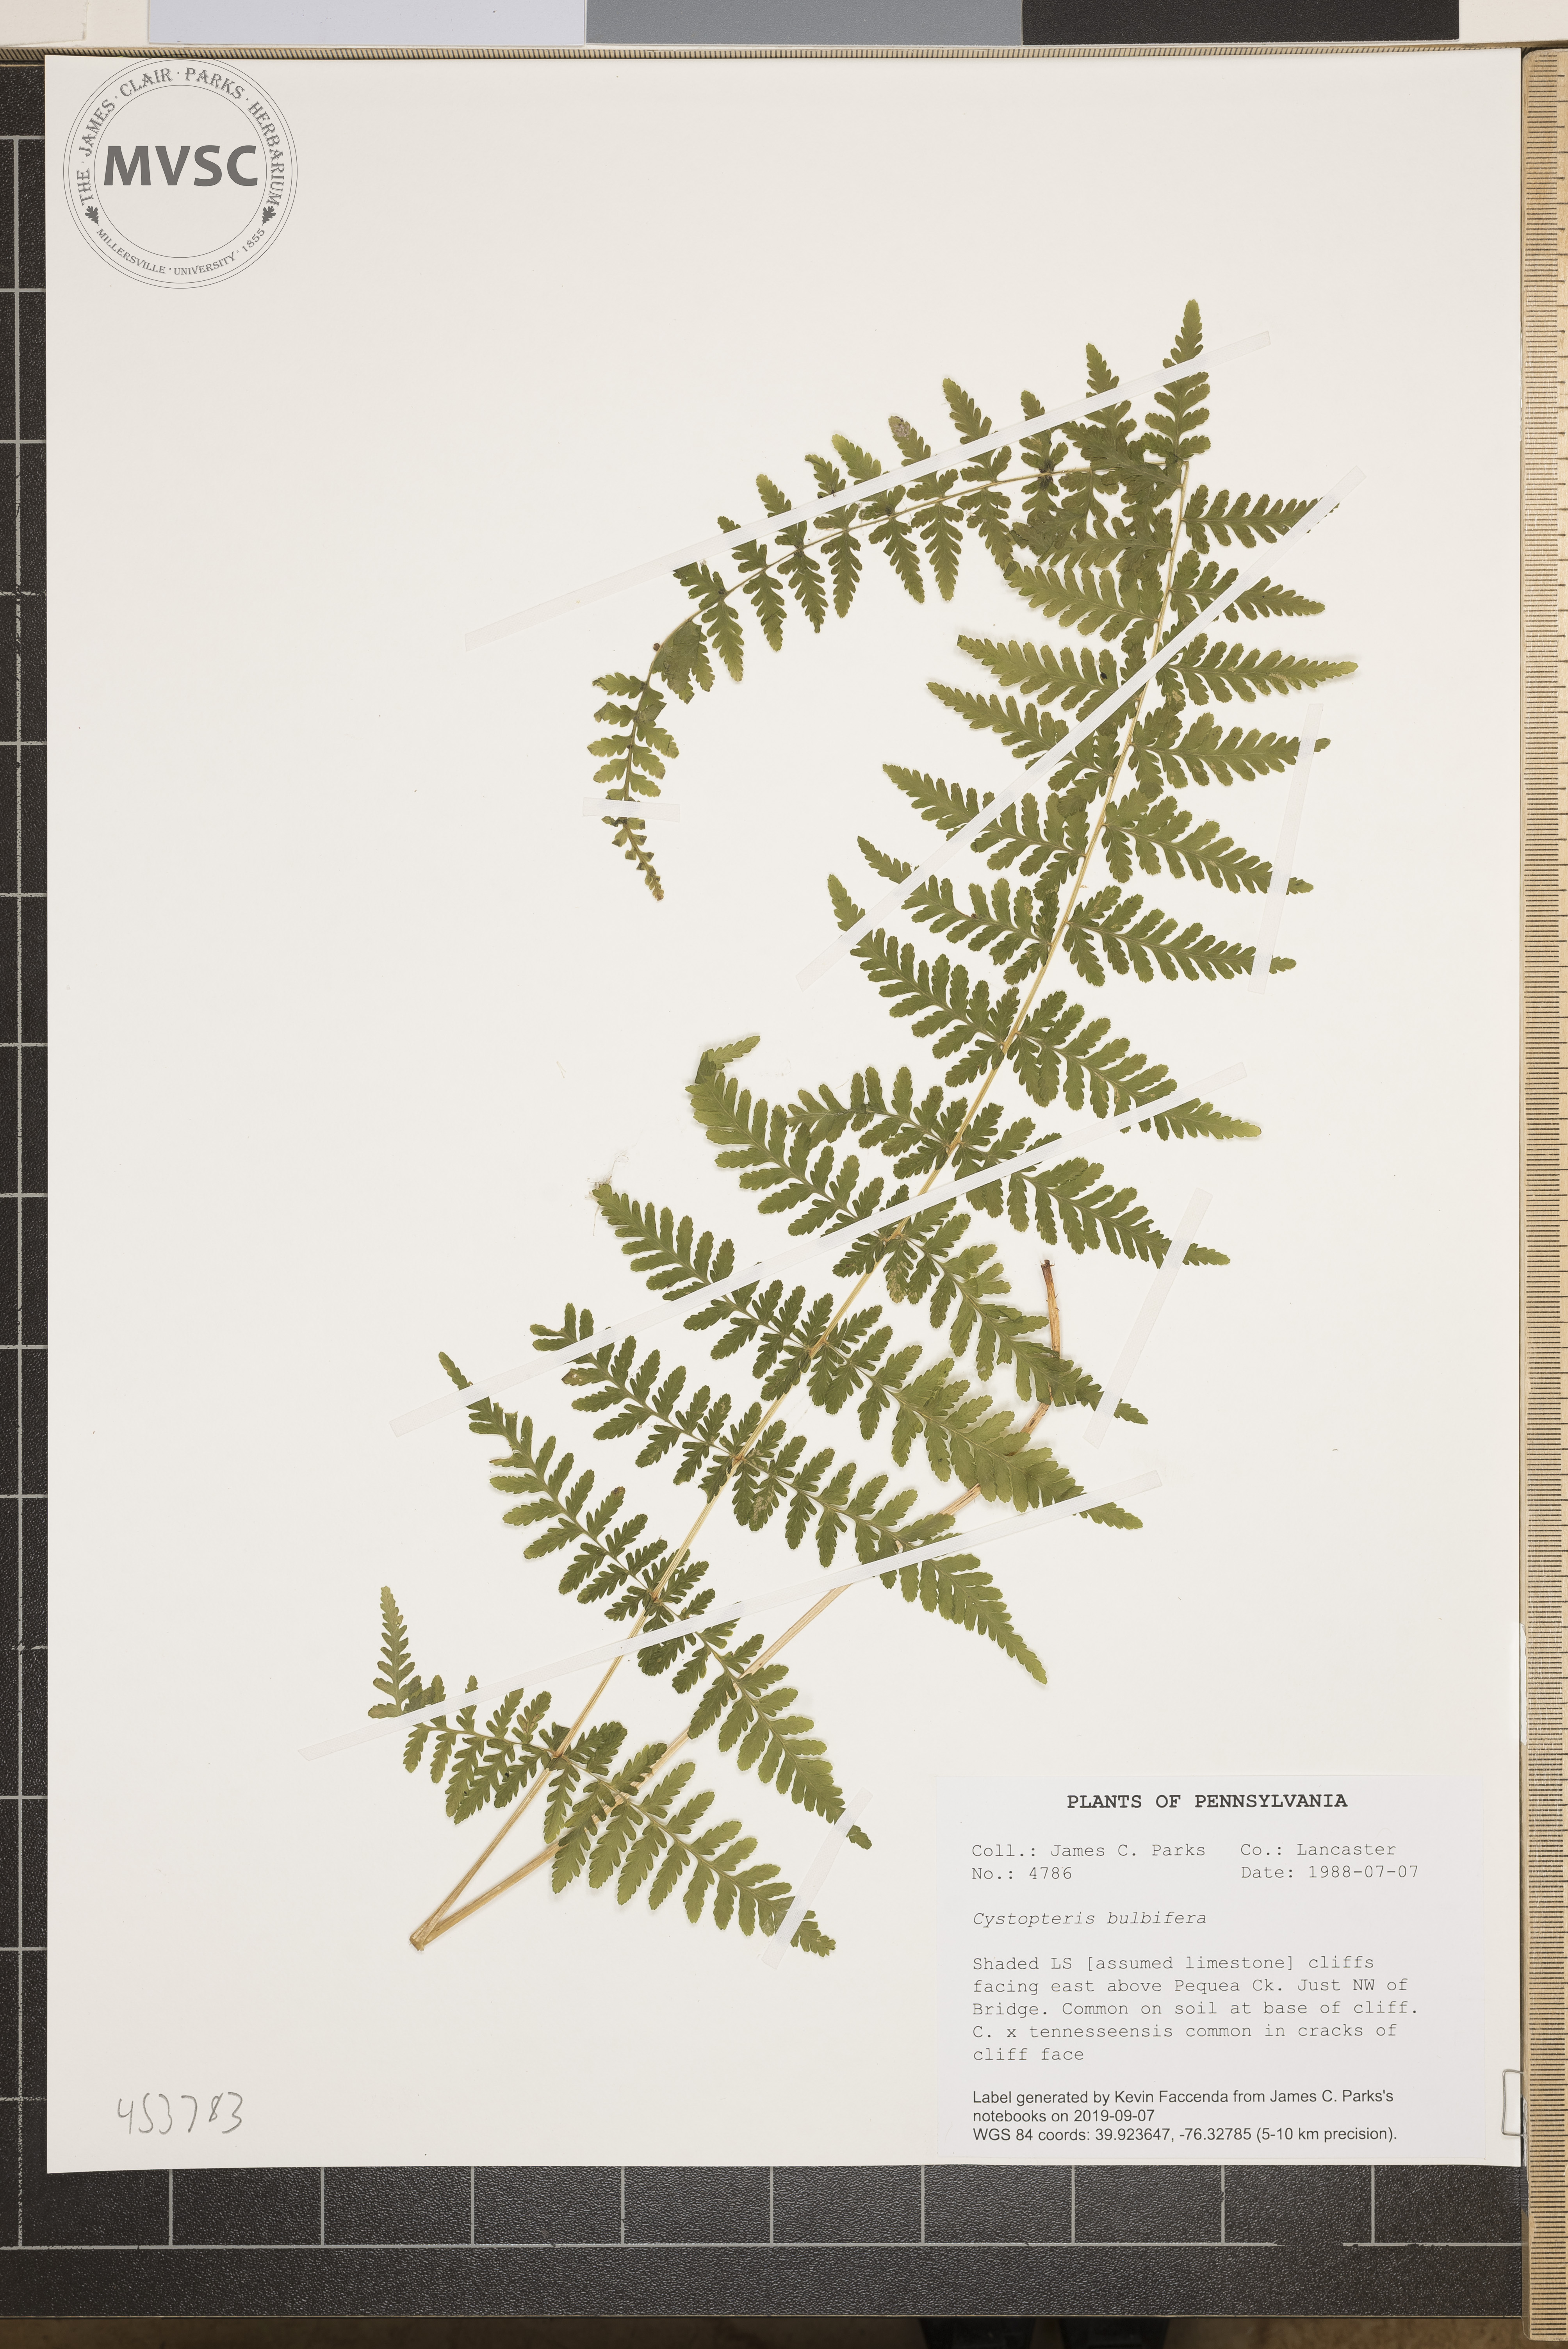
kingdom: Plantae
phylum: Tracheophyta
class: Polypodiopsida
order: Polypodiales
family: Cystopteridaceae
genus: Cystopteris
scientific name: Cystopteris bulbifera
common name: Bulblet bladder fern
